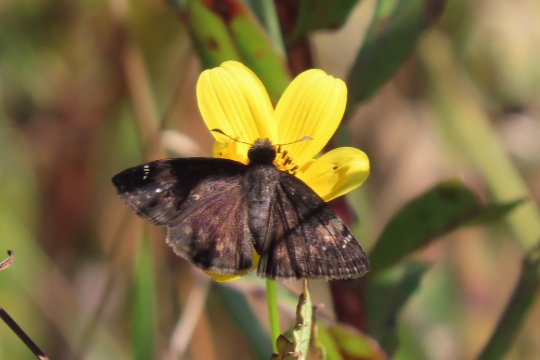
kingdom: Animalia
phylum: Arthropoda
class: Insecta
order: Lepidoptera
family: Hesperiidae
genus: Erynnis
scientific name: Erynnis zarucco
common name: Zarucco Duskywing
